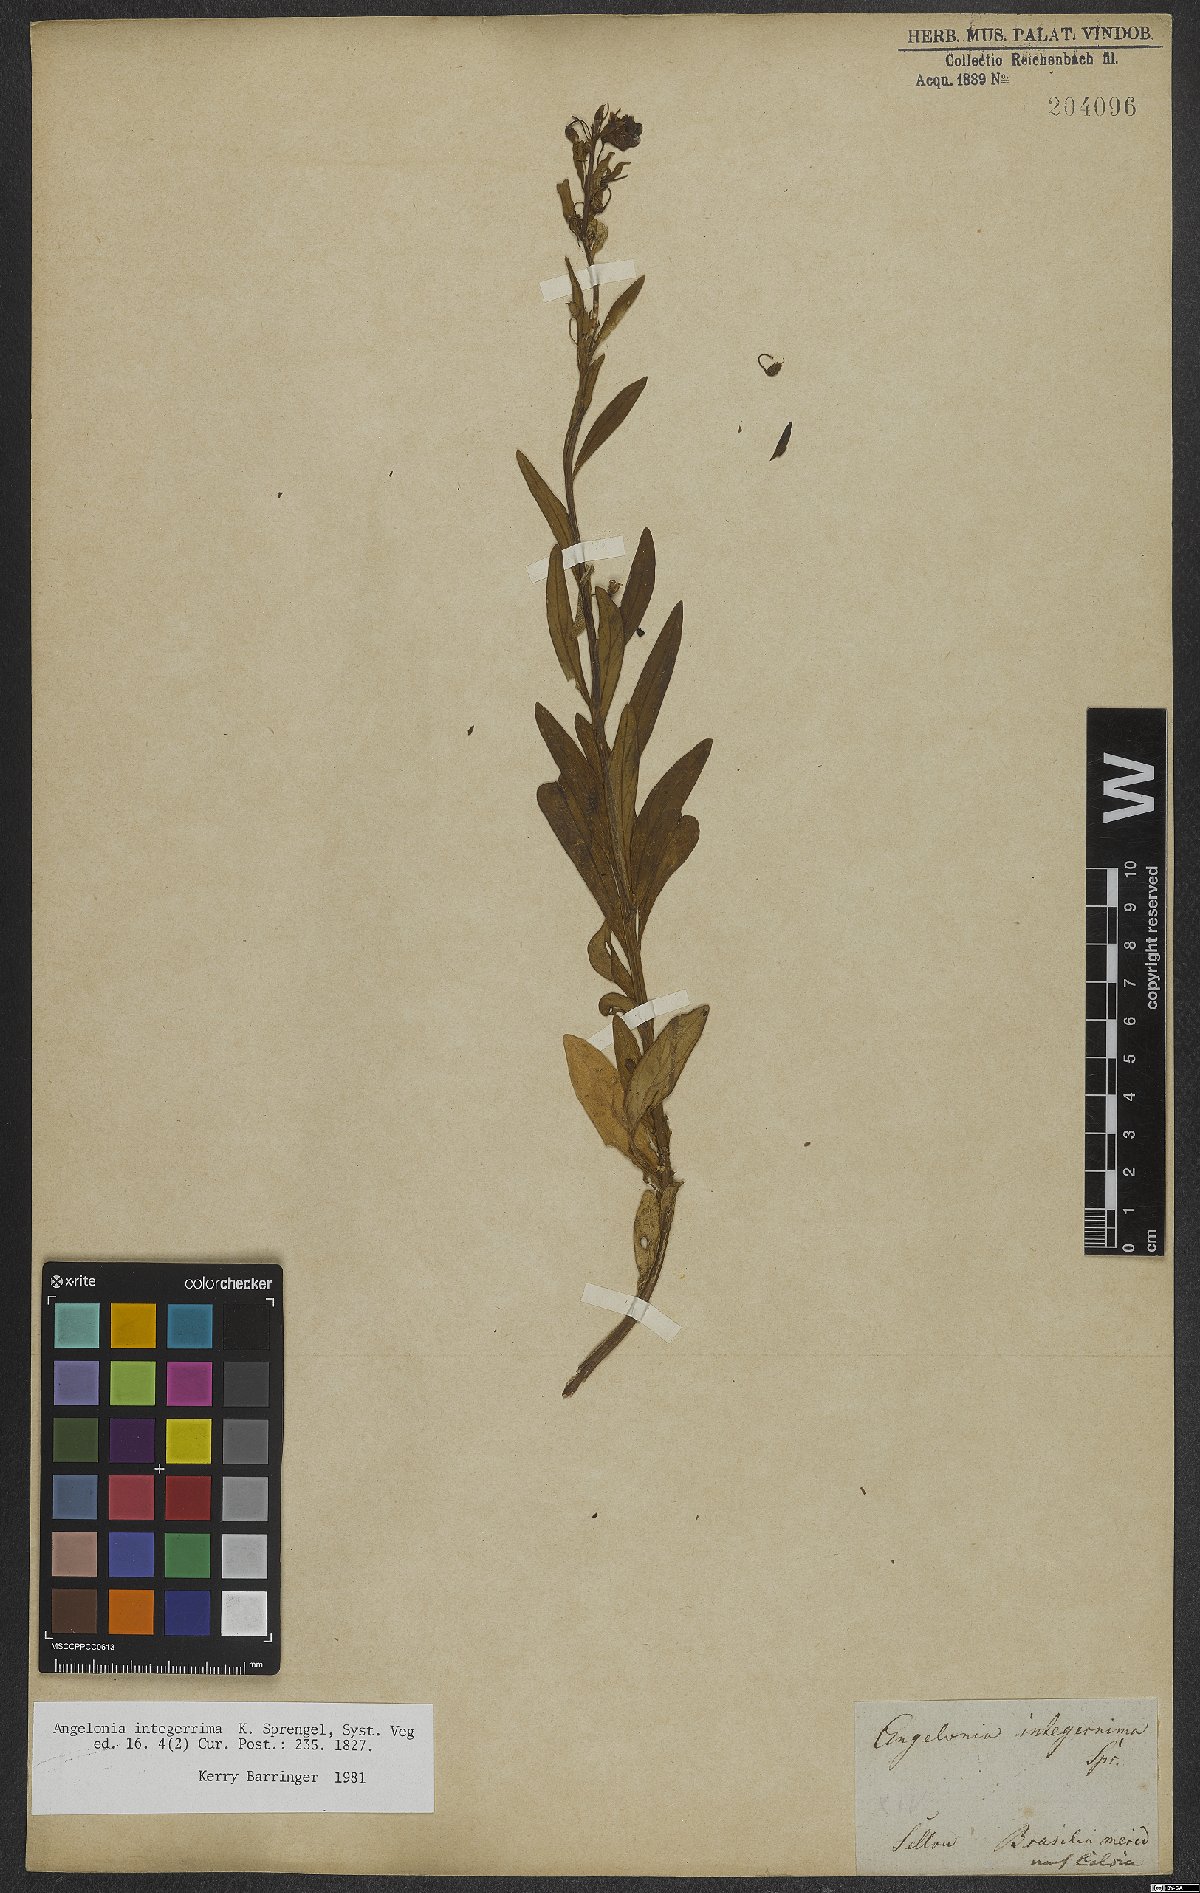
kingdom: Plantae
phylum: Tracheophyta
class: Magnoliopsida
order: Lamiales
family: Plantaginaceae
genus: Angelonia
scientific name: Angelonia integerrima
